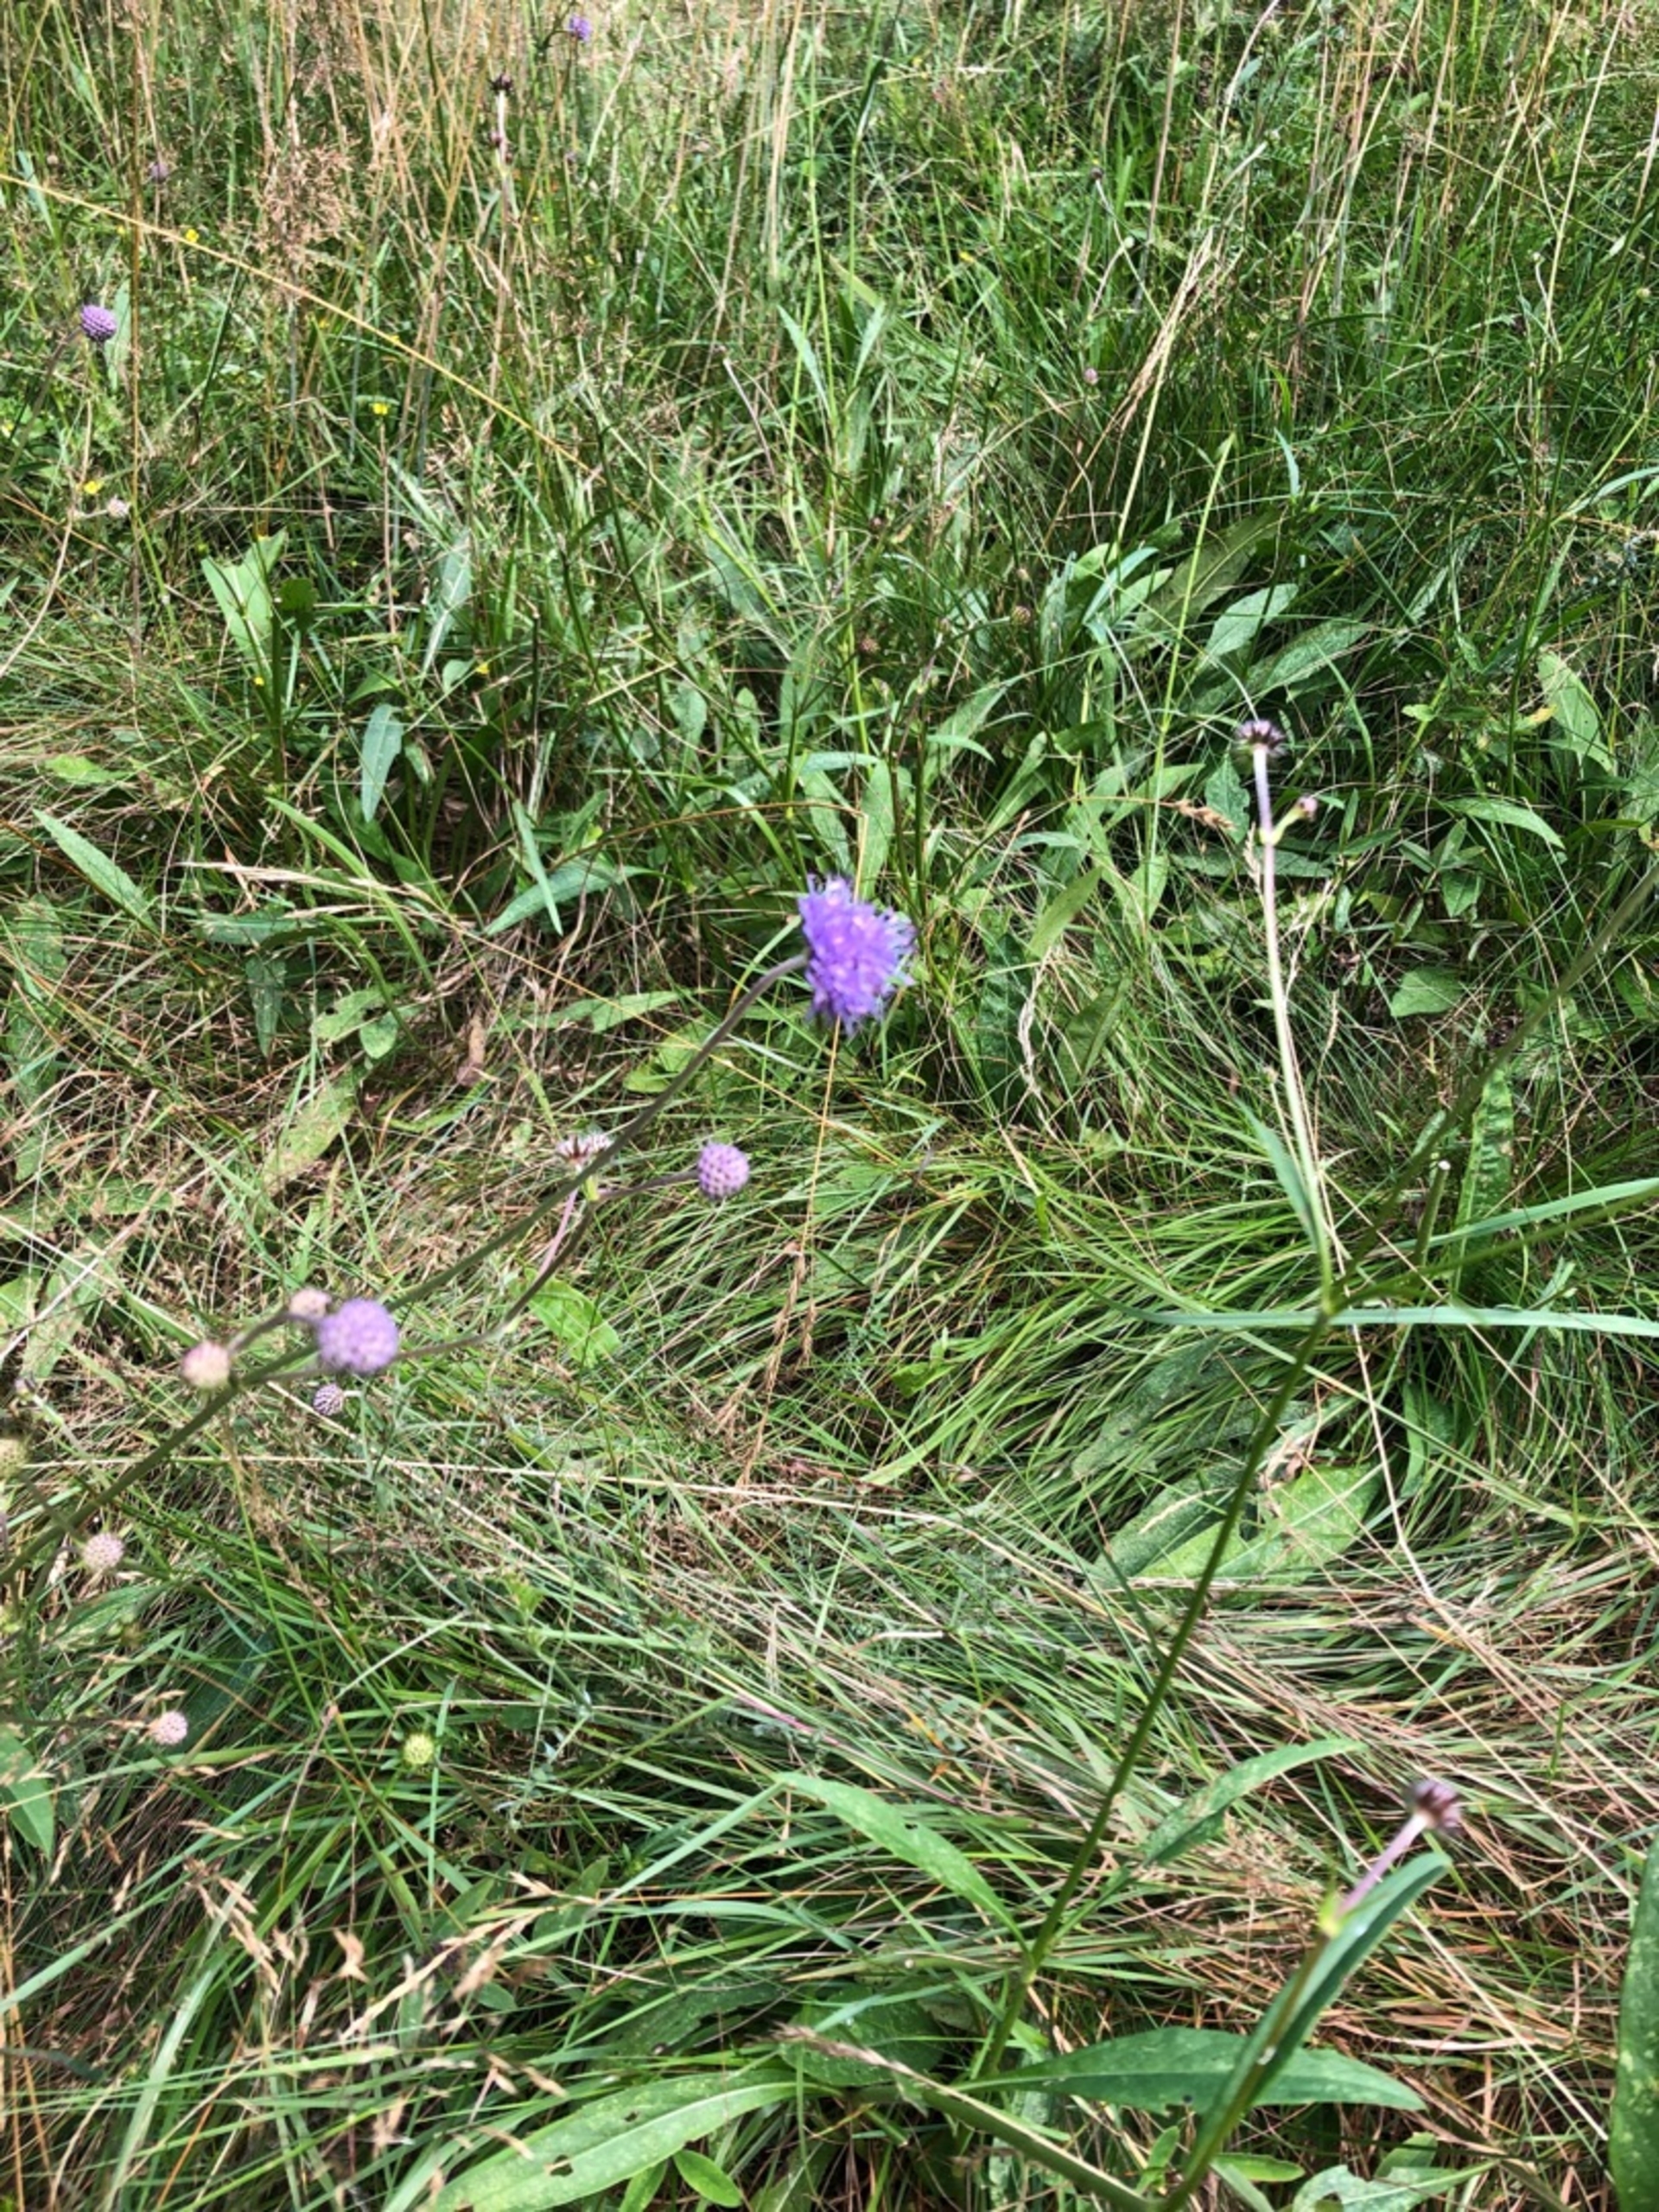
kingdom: Plantae
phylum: Tracheophyta
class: Magnoliopsida
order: Dipsacales
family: Caprifoliaceae
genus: Succisa
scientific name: Succisa pratensis
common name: Djævelsbid
